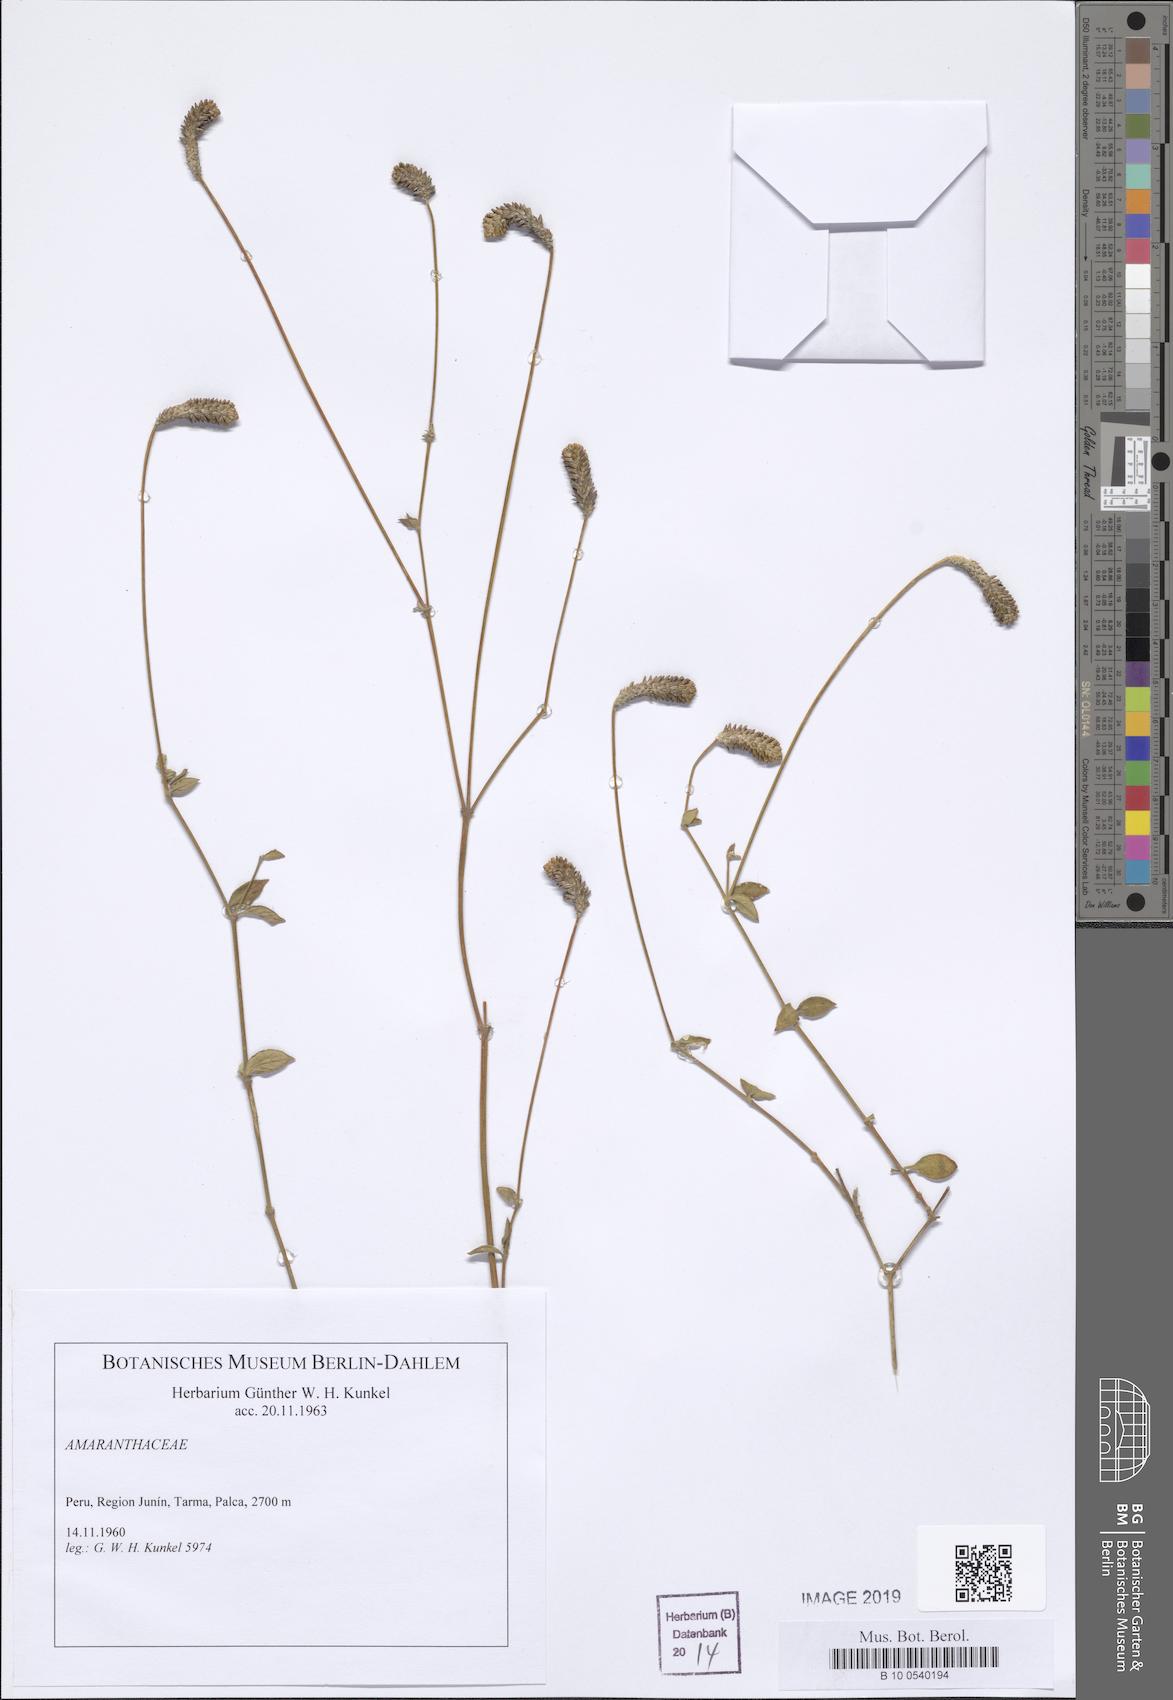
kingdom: Plantae
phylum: Tracheophyta
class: Magnoliopsida
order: Caryophyllales
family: Amaranthaceae
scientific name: Amaranthaceae
